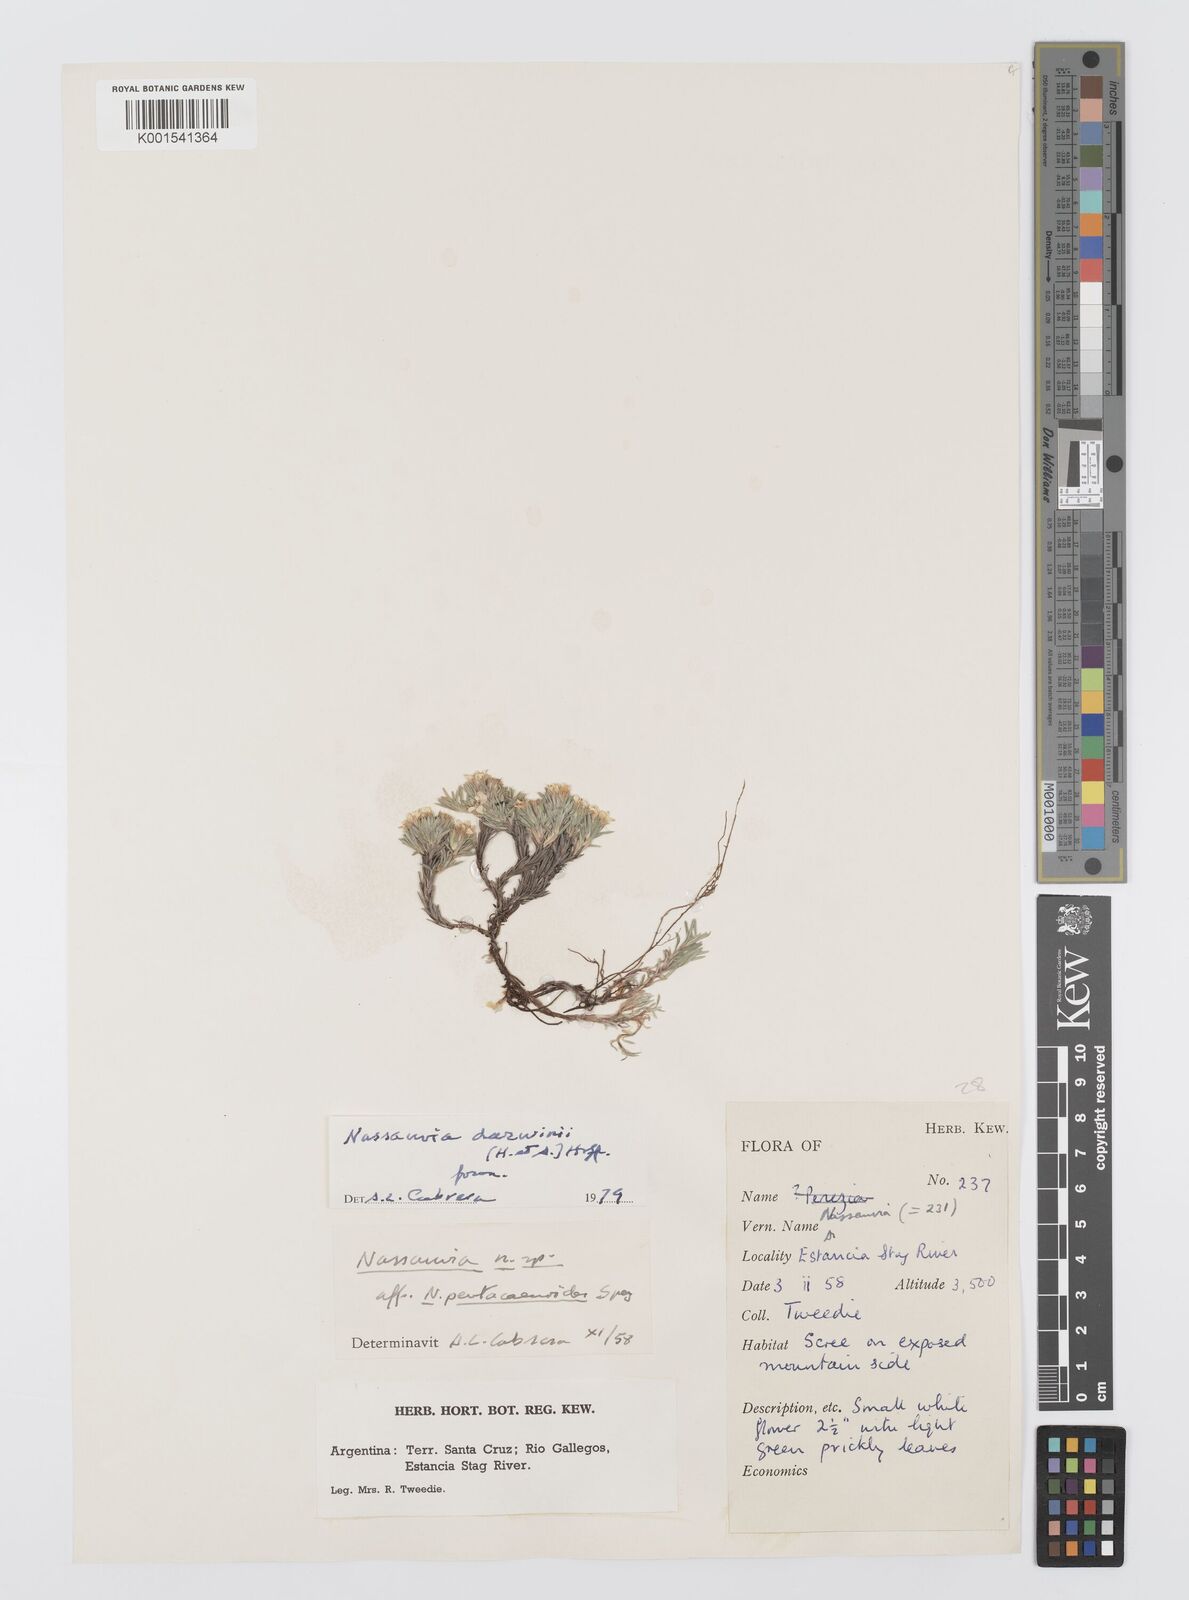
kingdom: Plantae
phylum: Tracheophyta
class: Magnoliopsida
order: Asterales
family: Asteraceae
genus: Nassauvia
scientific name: Nassauvia darwinii
